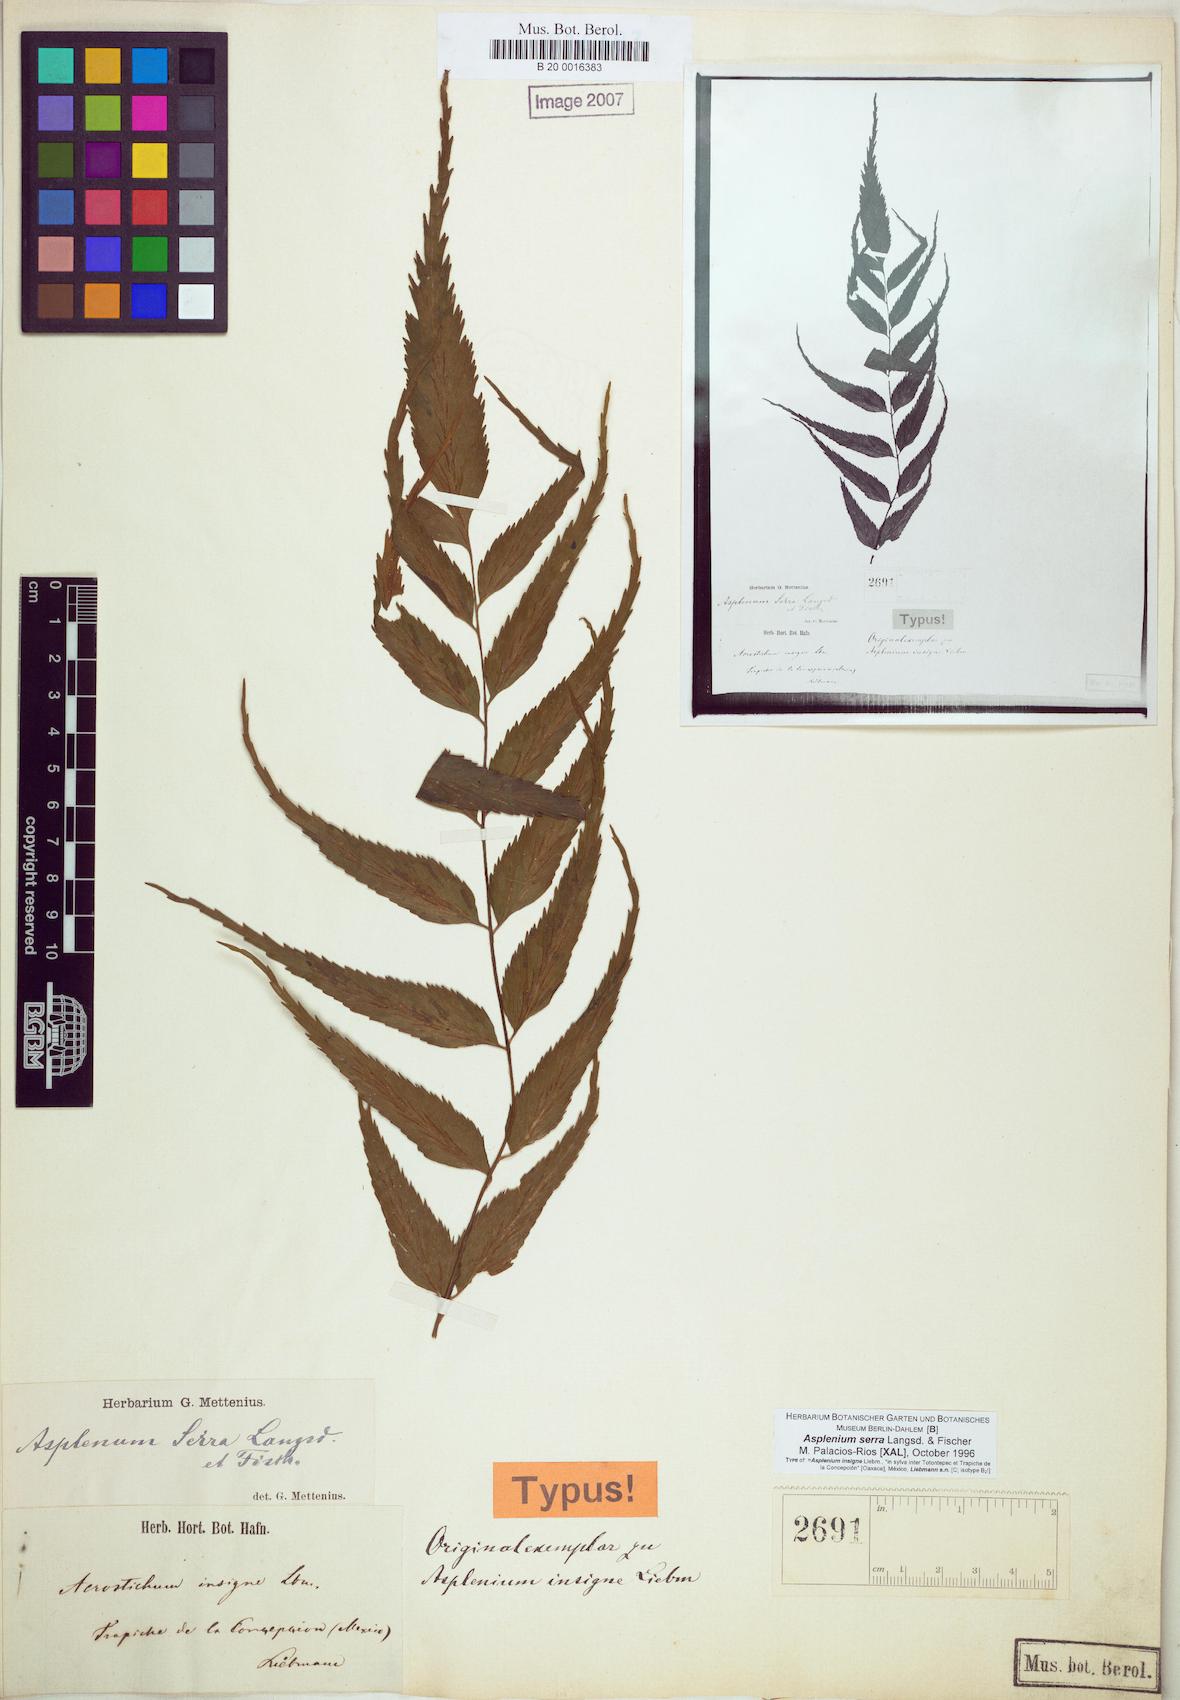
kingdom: Plantae
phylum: Tracheophyta
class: Polypodiopsida
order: Polypodiales
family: Aspleniaceae
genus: Asplenium
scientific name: Asplenium serra
